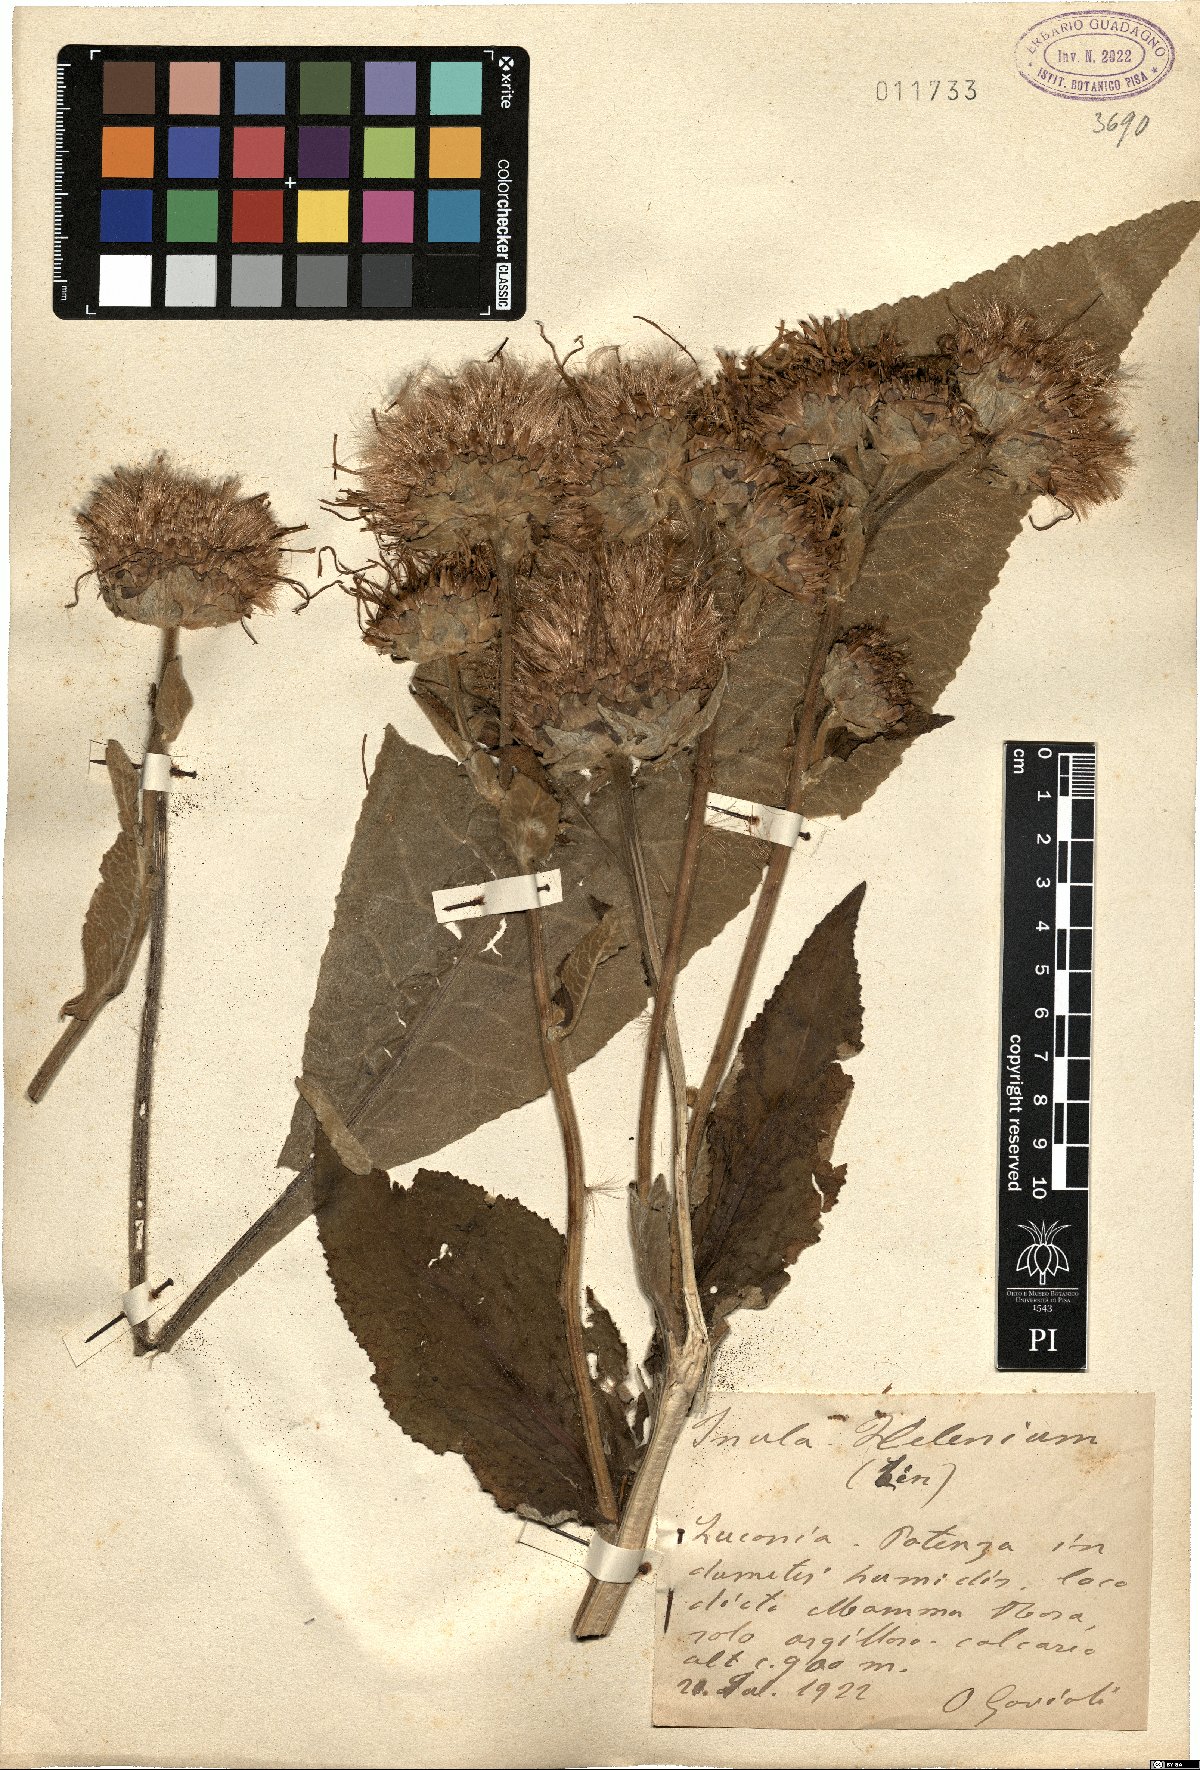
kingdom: Plantae
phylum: Tracheophyta
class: Magnoliopsida
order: Asterales
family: Asteraceae
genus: Inula
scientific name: Inula helenium
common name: Elecampane
